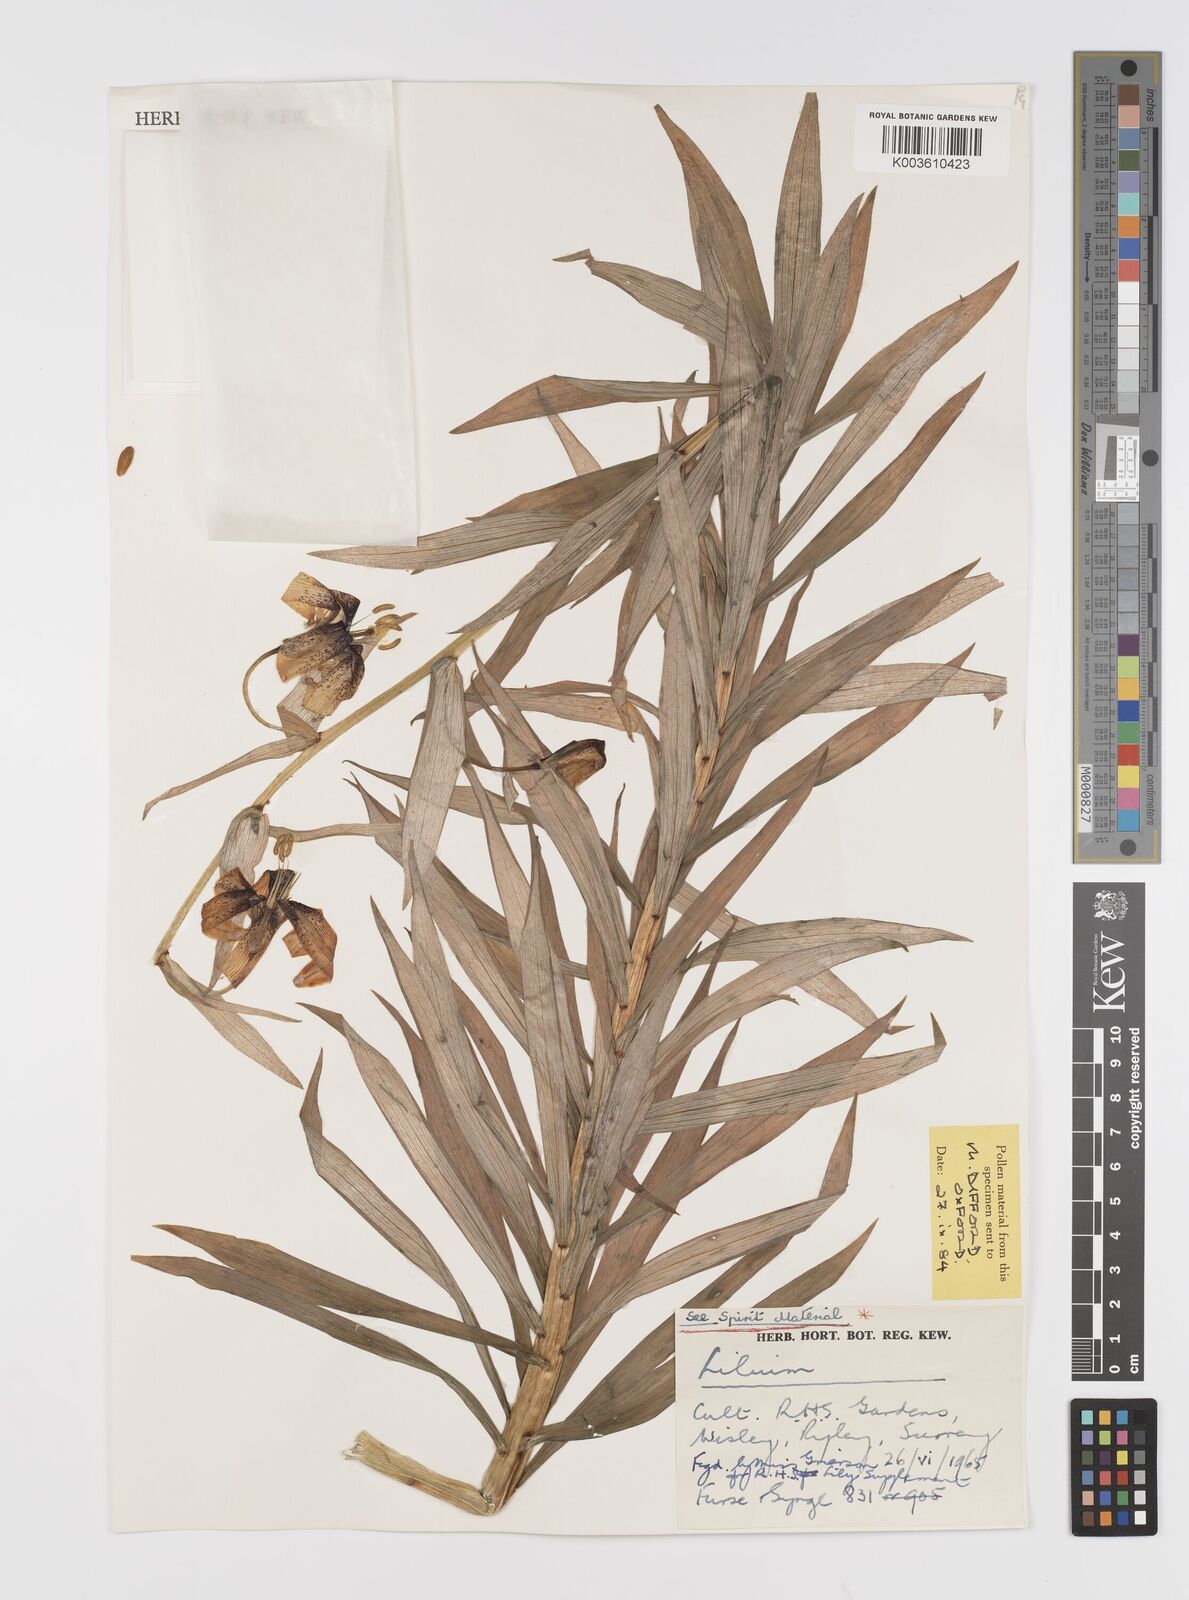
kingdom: Plantae
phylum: Tracheophyta
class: Liliopsida
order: Liliales
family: Liliaceae
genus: Lilium
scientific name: Lilium
